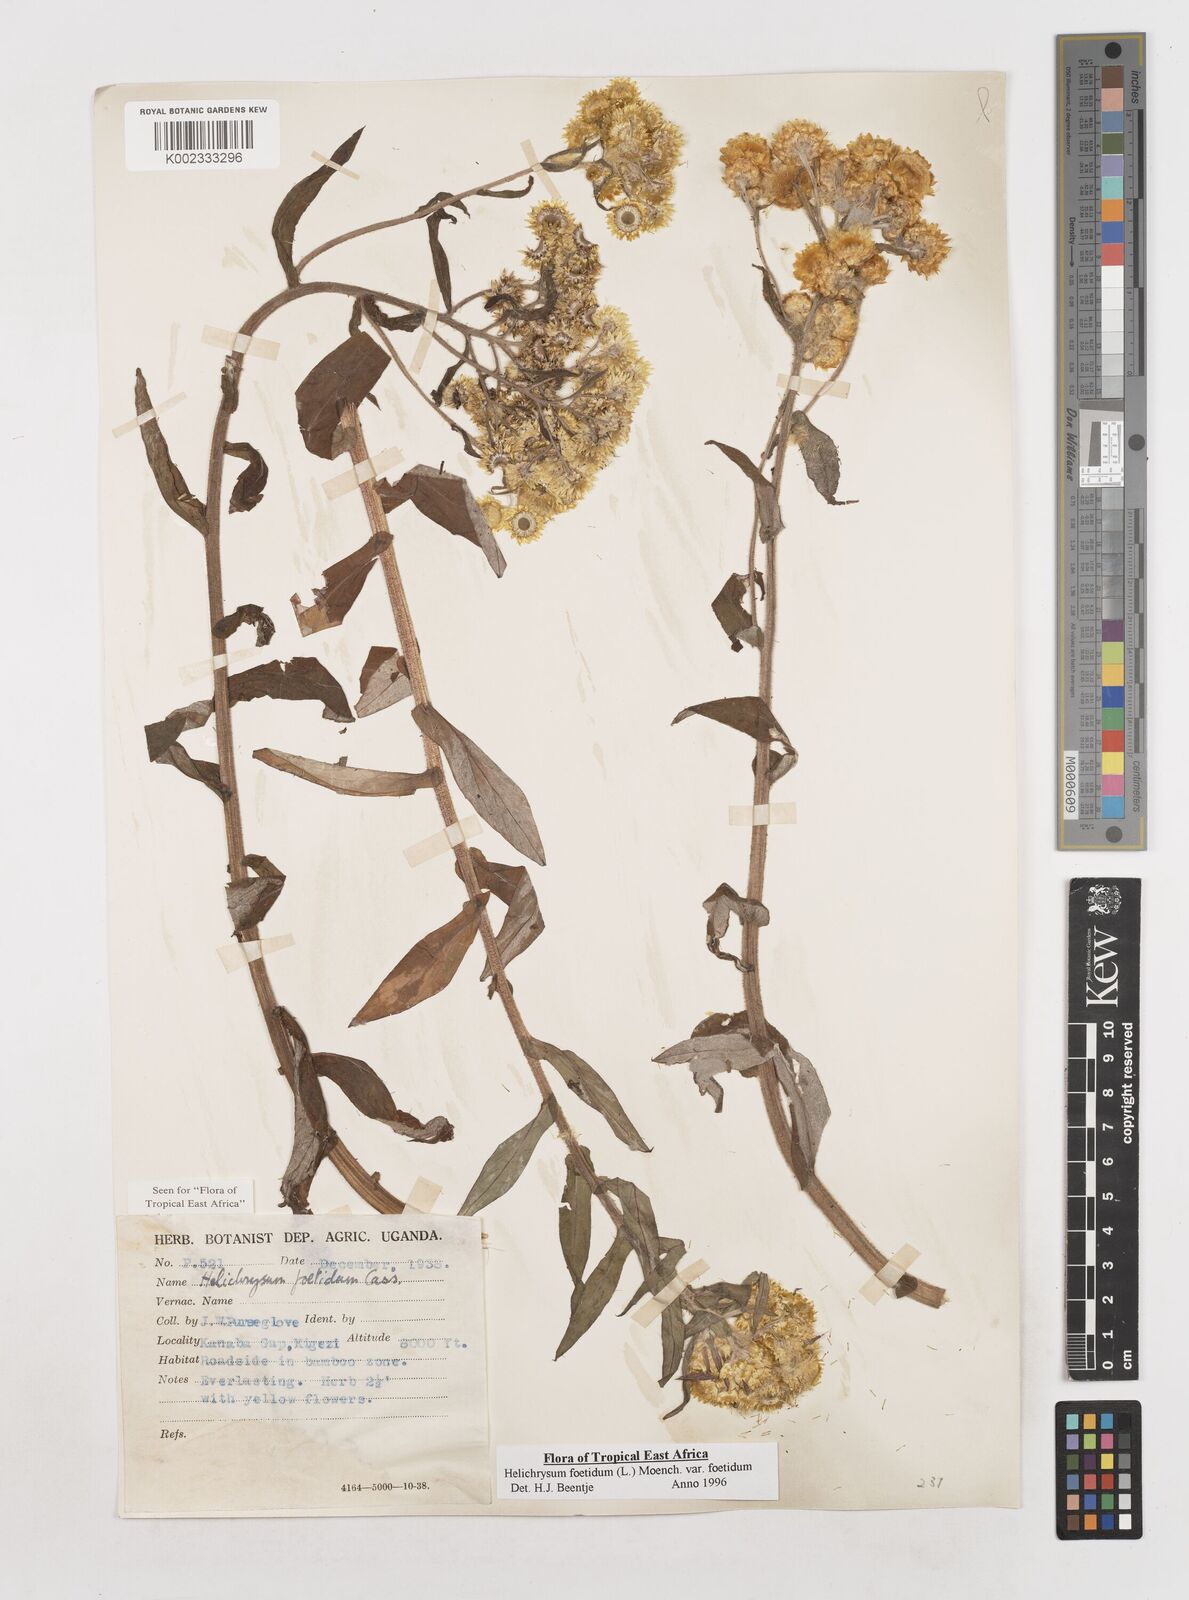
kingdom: Plantae
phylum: Tracheophyta
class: Magnoliopsida
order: Asterales
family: Asteraceae
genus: Helichrysum
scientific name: Helichrysum foetidum
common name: Stinking everlasting
